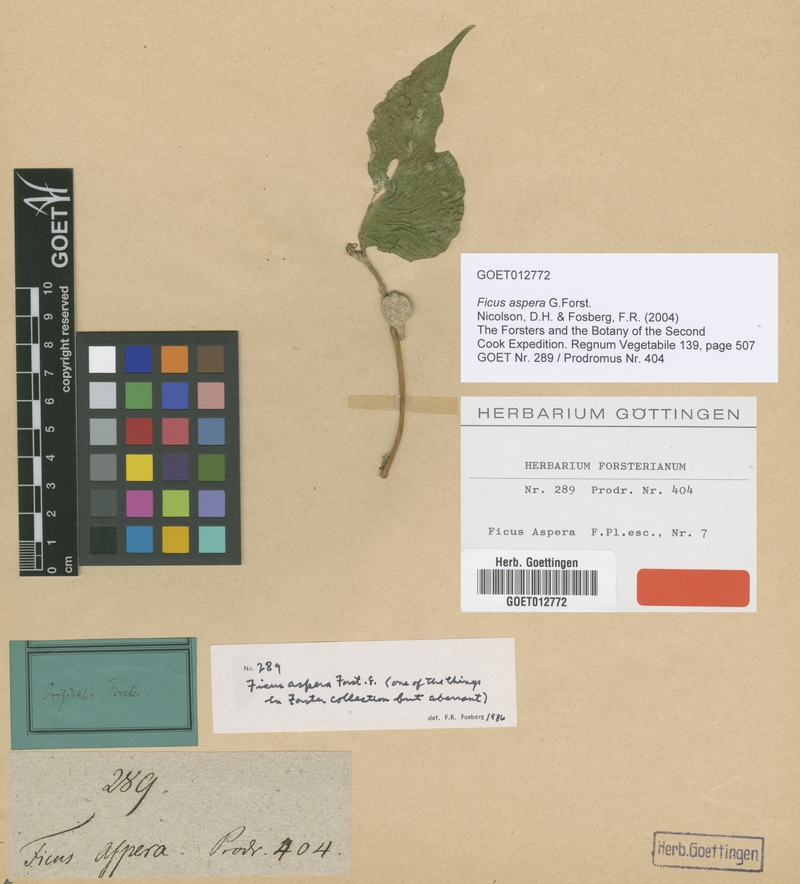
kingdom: Plantae
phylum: Tracheophyta
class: Magnoliopsida
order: Rosales
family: Moraceae
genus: Ficus
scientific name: Ficus aspera
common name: Mosaic fig
